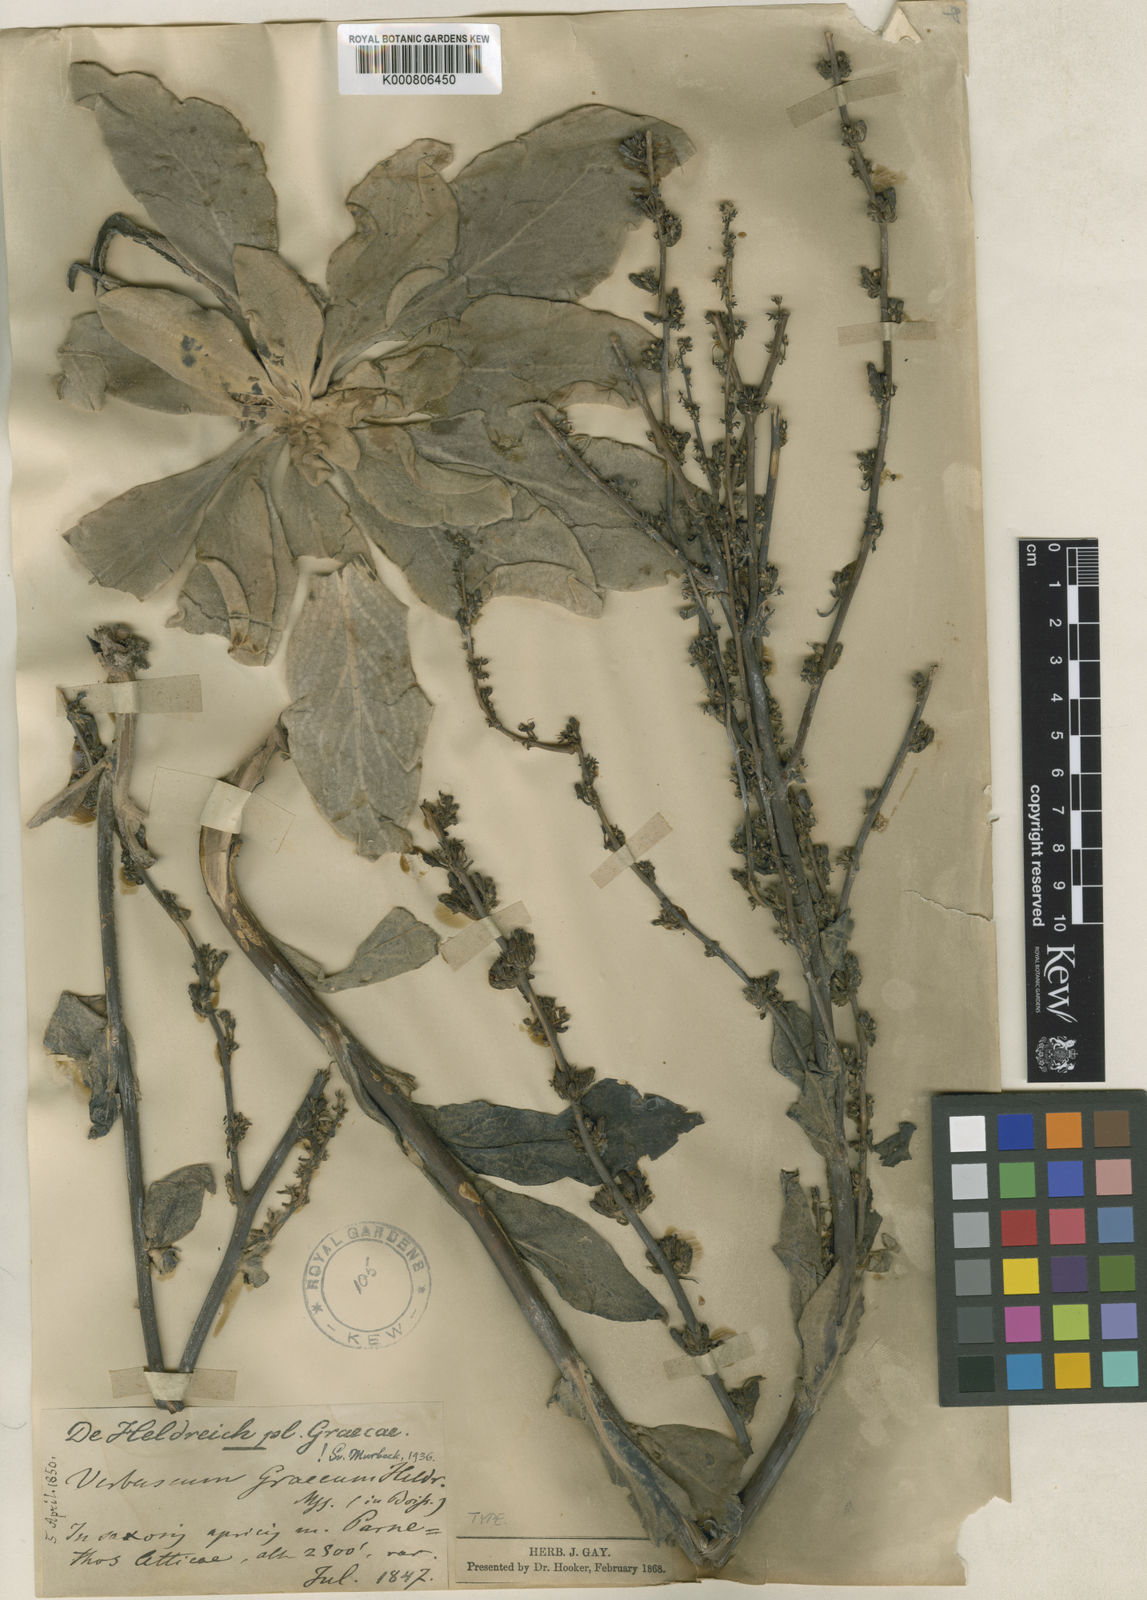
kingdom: Plantae
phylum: Tracheophyta
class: Magnoliopsida
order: Lamiales
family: Scrophulariaceae
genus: Verbascum
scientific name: Verbascum graecum
